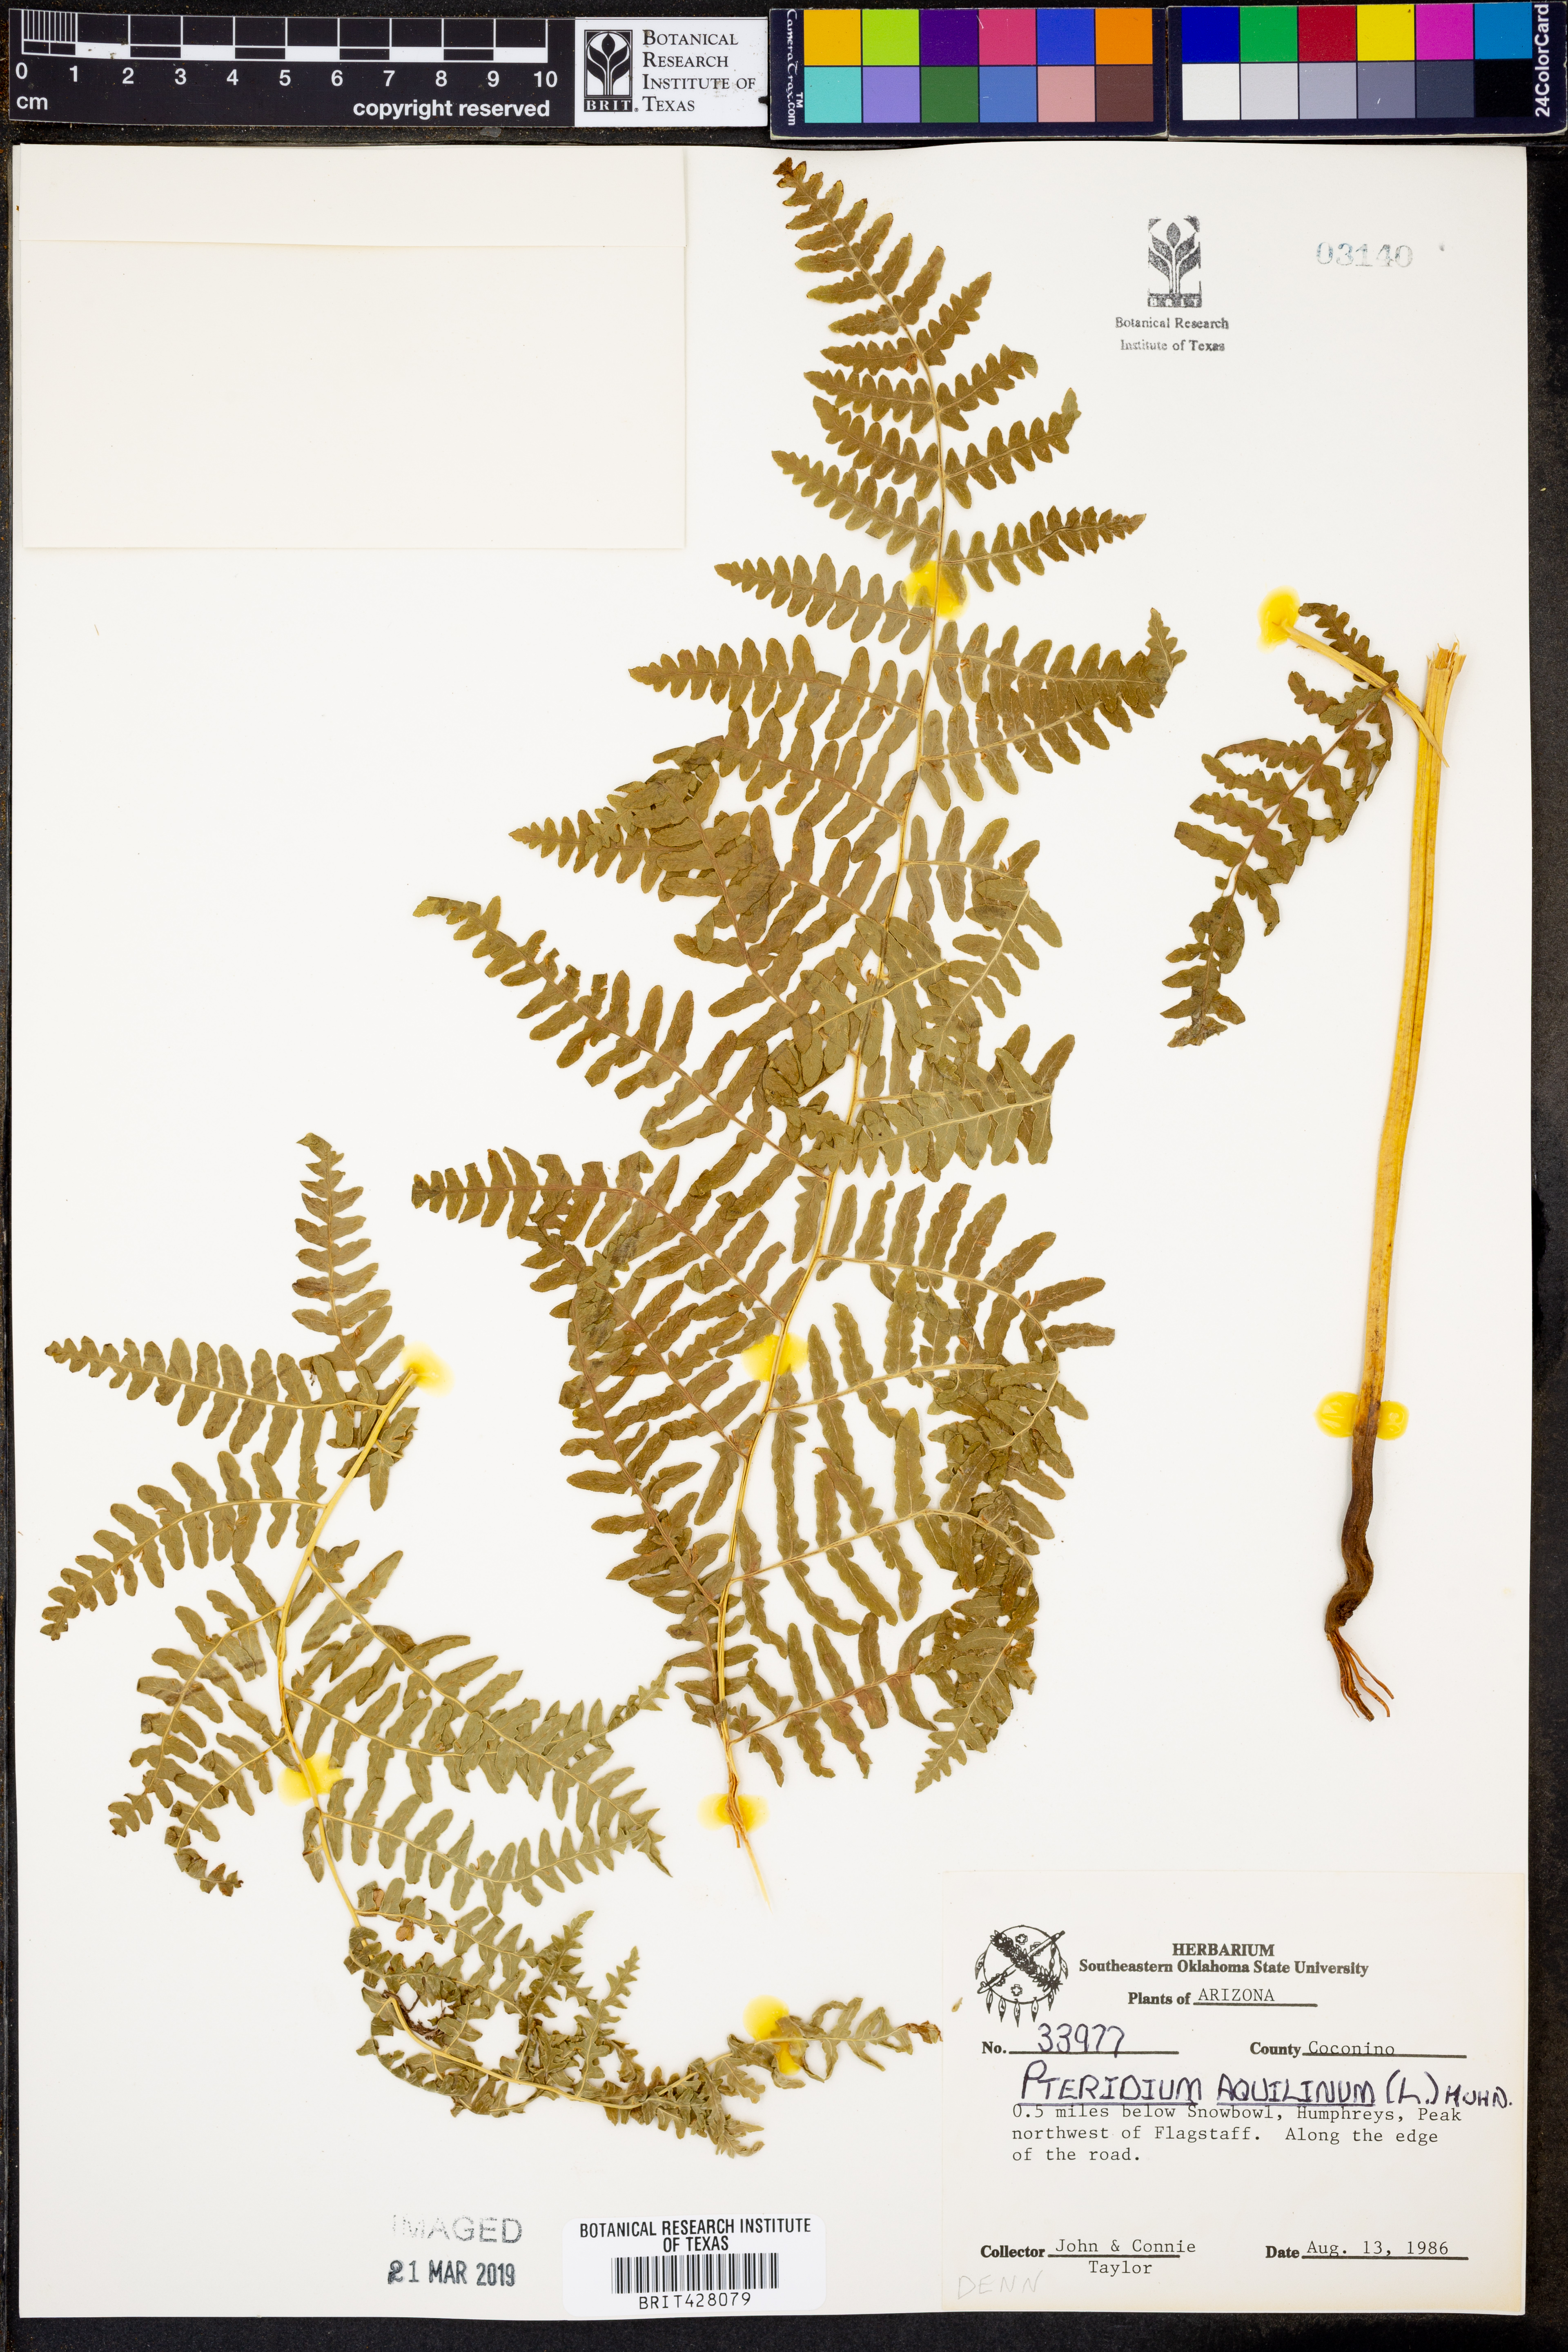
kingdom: Plantae
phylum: Tracheophyta
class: Polypodiopsida
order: Polypodiales
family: Dennstaedtiaceae
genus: Pteridium
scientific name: Pteridium aquilinum
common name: Bracken
